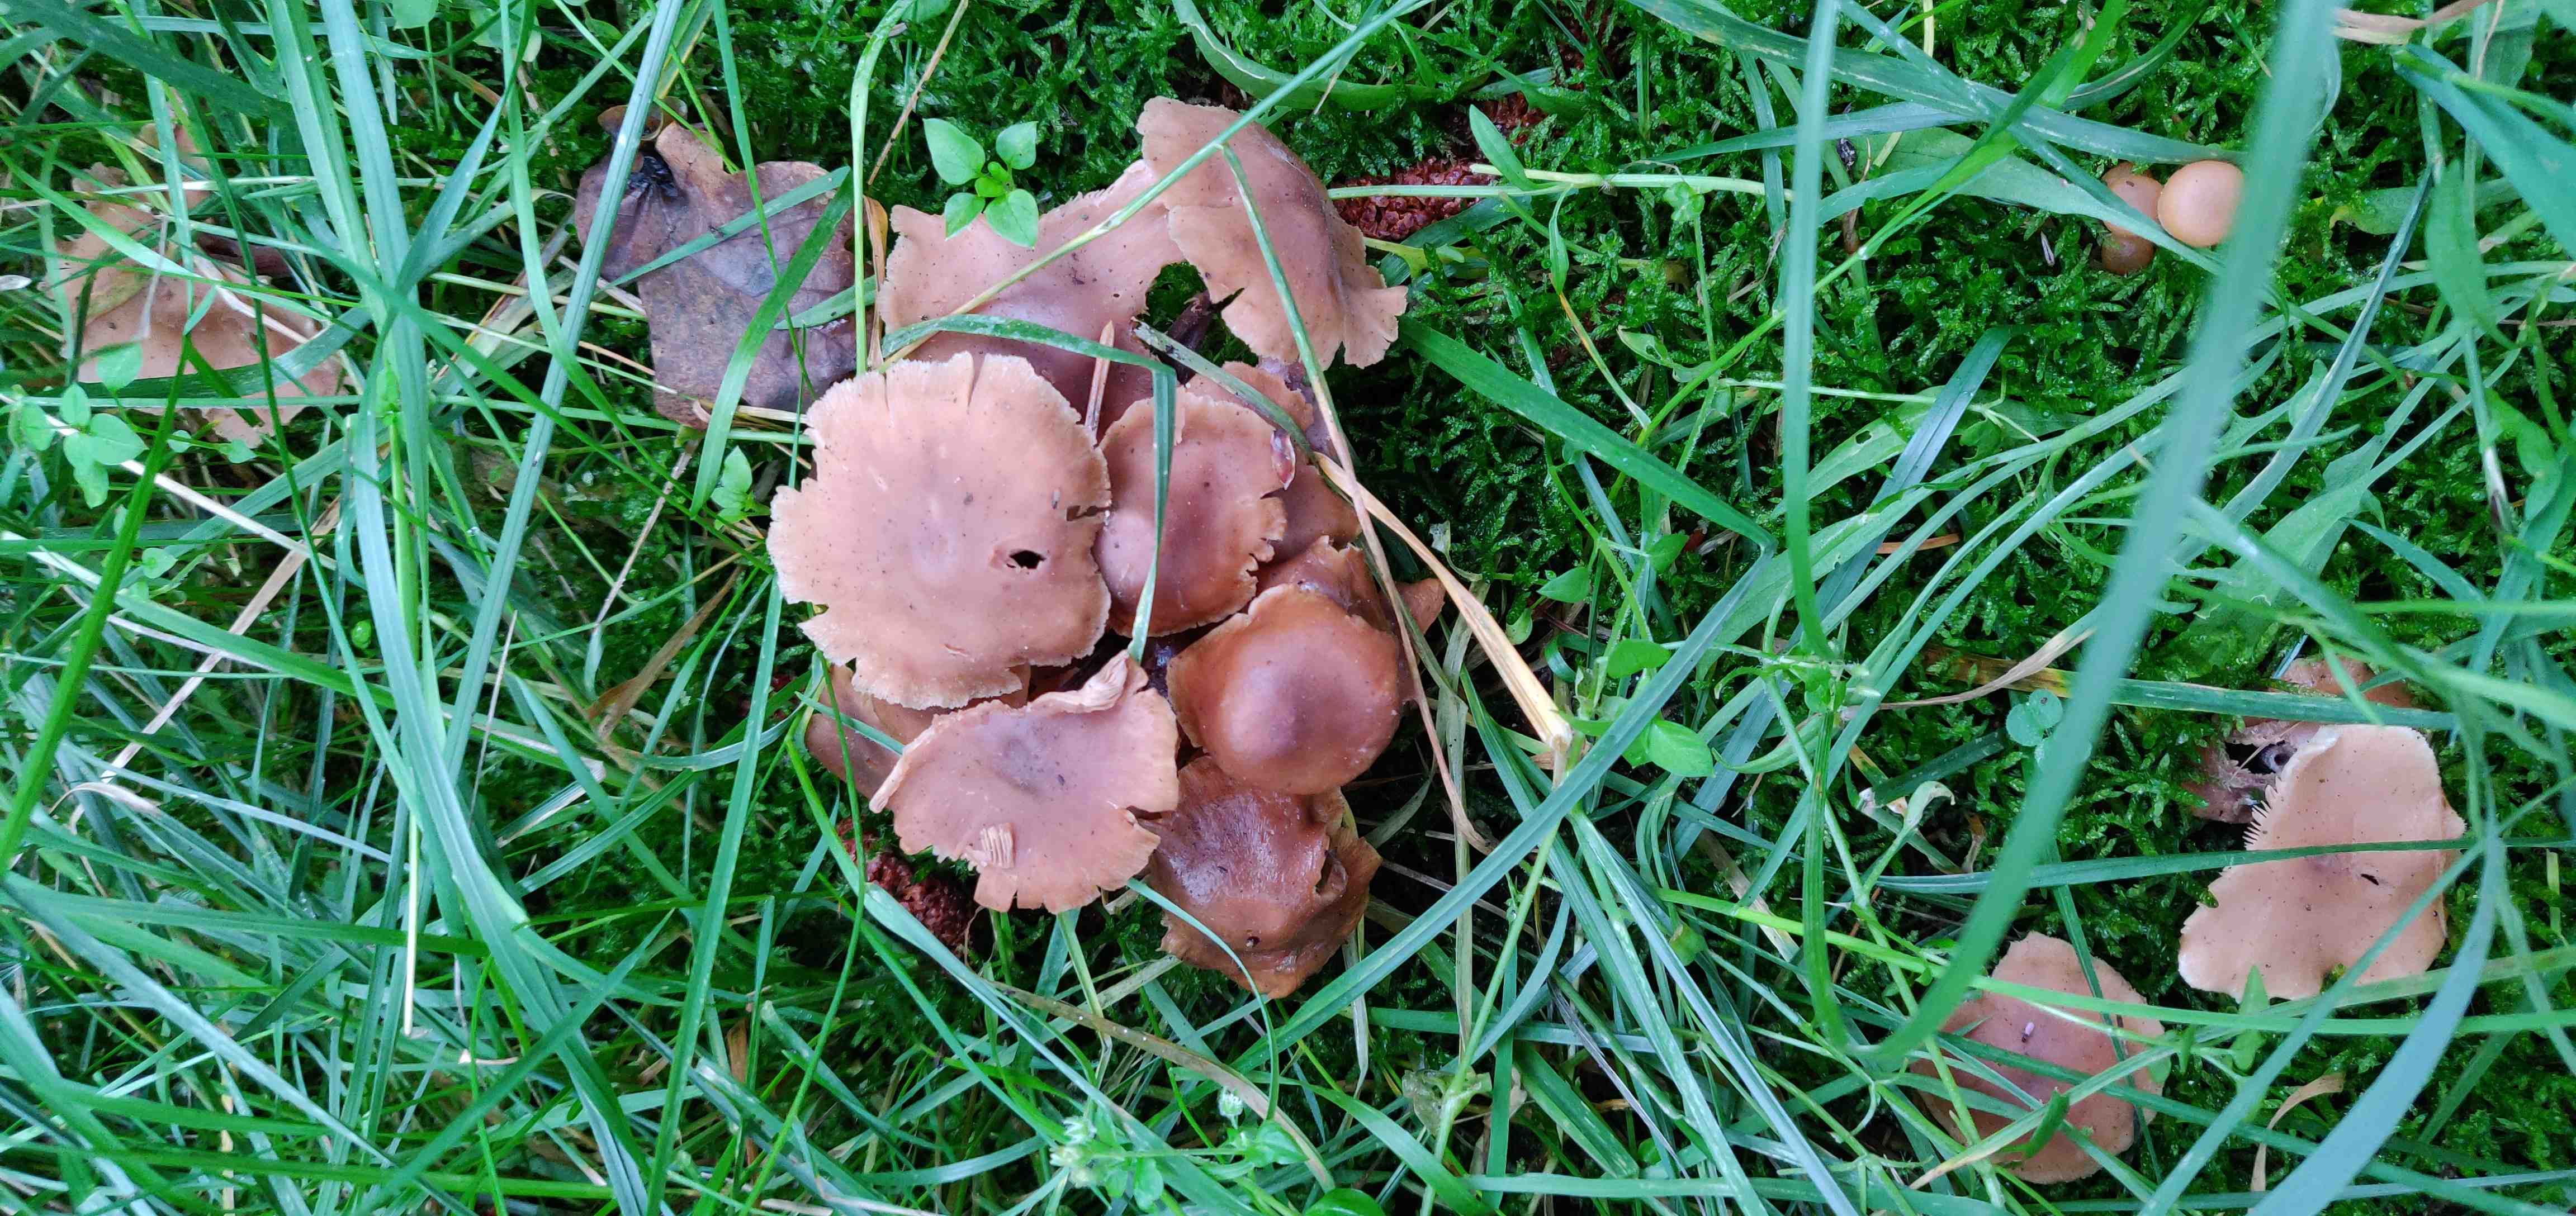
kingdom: Fungi
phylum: Basidiomycota
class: Agaricomycetes
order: Agaricales
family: Omphalotaceae
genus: Collybiopsis
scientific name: Collybiopsis confluens
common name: knippe-fladhat
